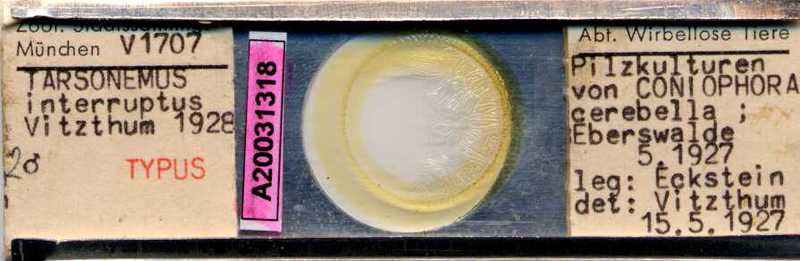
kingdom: Animalia
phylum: Arthropoda
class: Arachnida
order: Trombidiformes
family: Tarsonemidae
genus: Tarsonemus
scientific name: Tarsonemus interruptus
